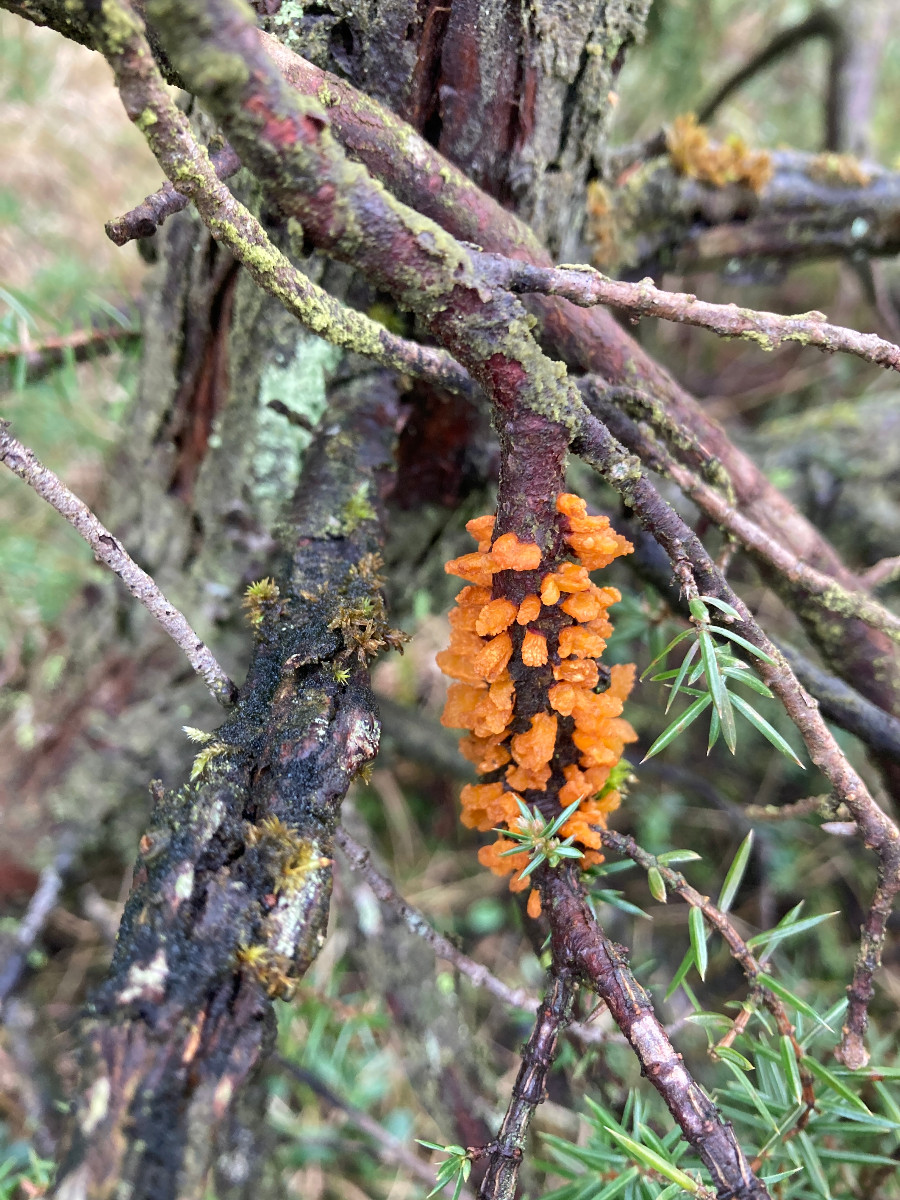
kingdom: Fungi
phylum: Basidiomycota
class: Pucciniomycetes
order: Pucciniales
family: Gymnosporangiaceae
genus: Gymnosporangium
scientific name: Gymnosporangium clavariiforme
